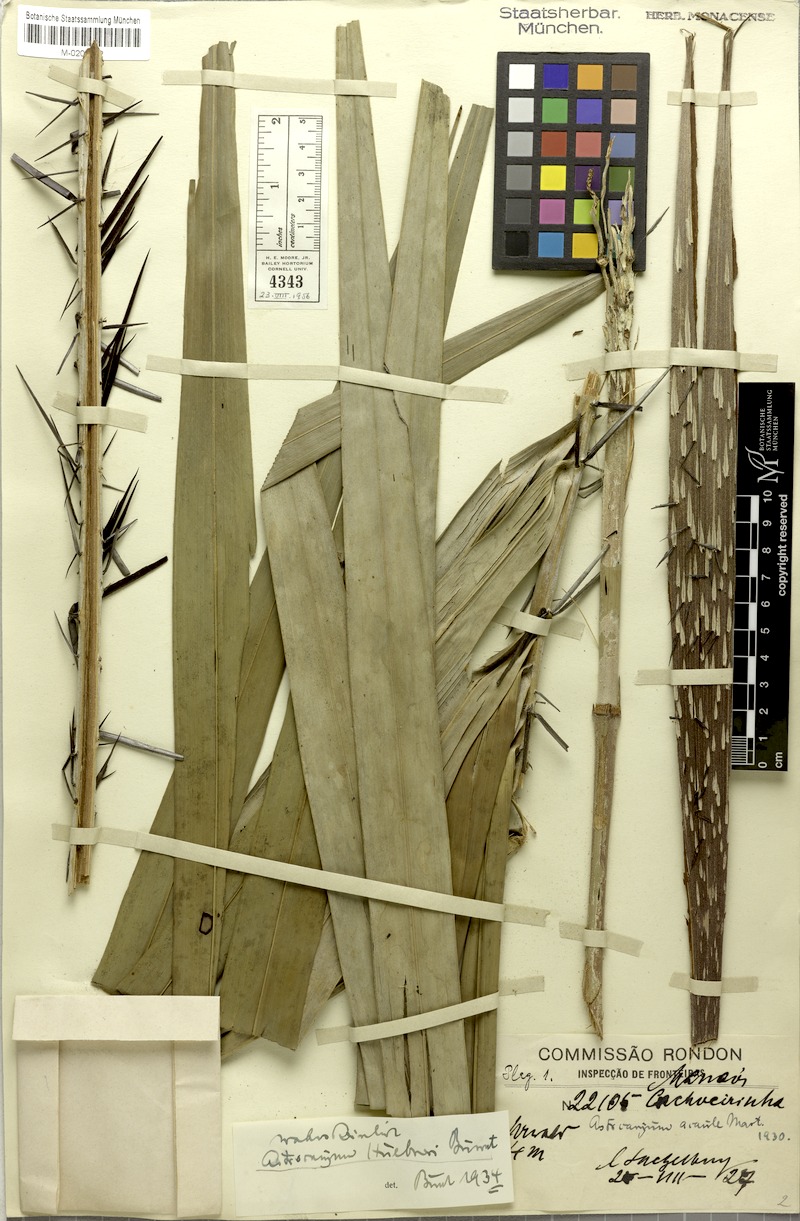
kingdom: Plantae
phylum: Tracheophyta
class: Liliopsida
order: Arecales
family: Arecaceae
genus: Astrocaryum
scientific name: Astrocaryum acaule
